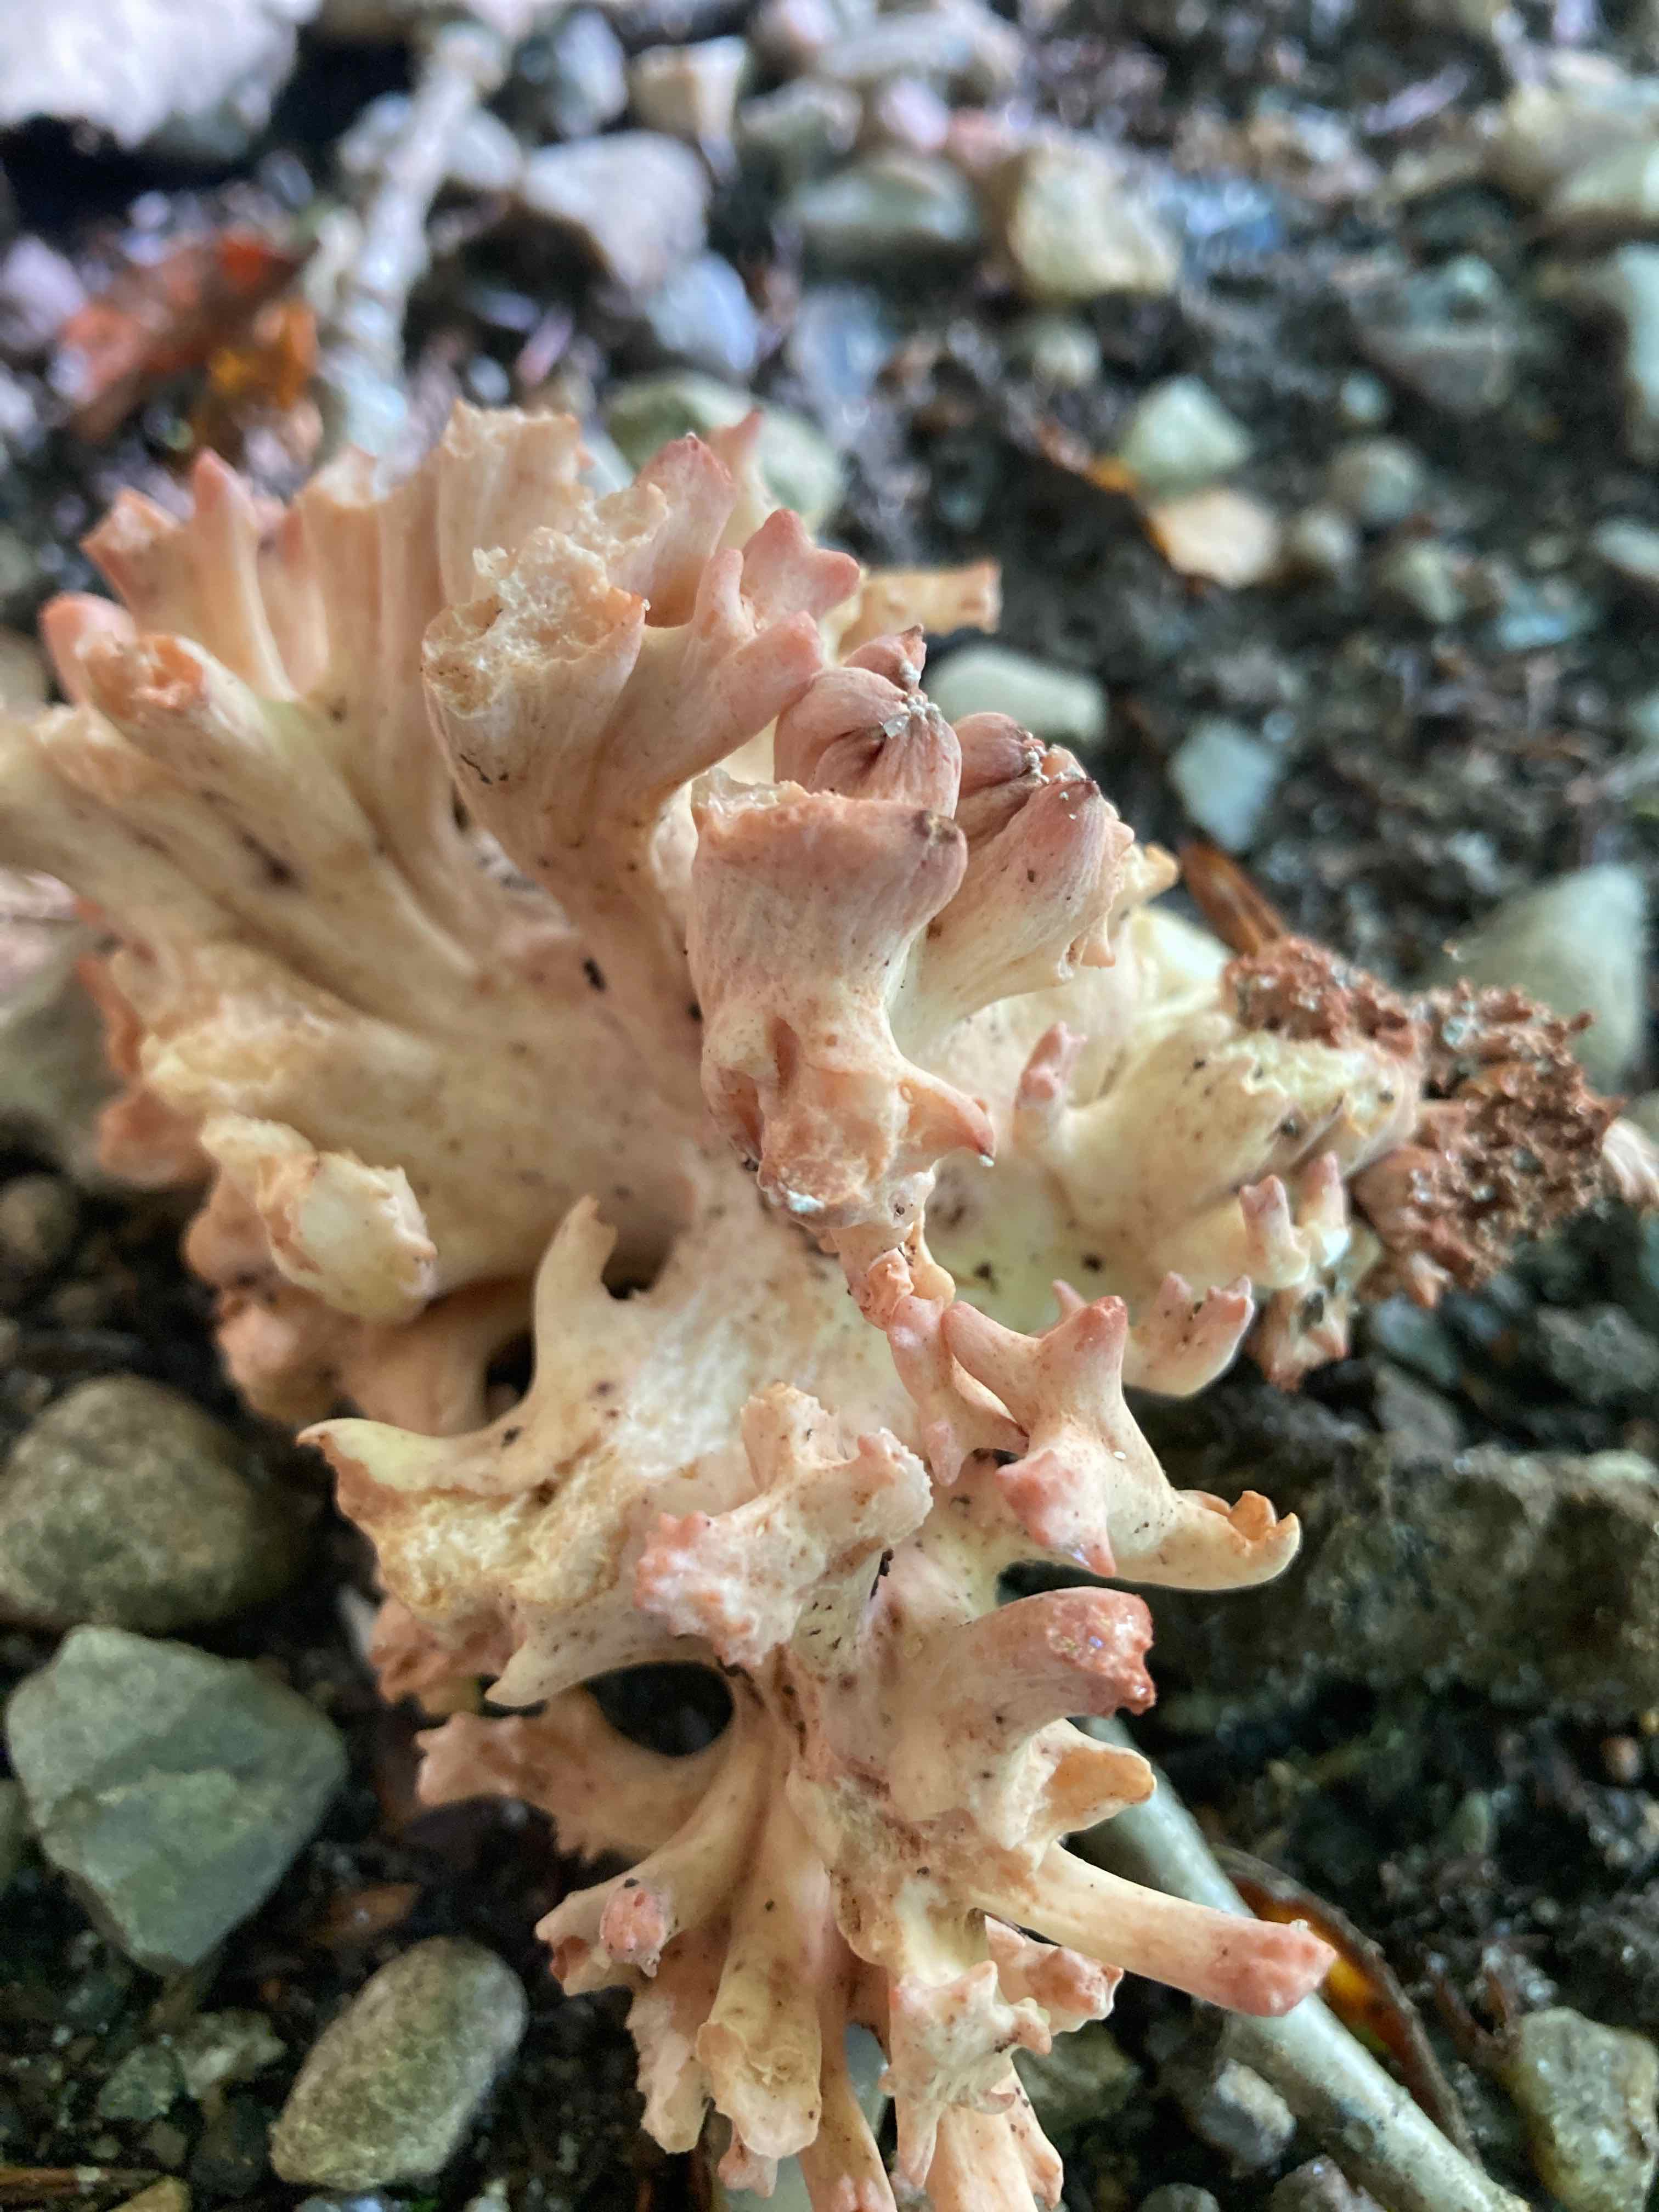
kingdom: Fungi
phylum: Basidiomycota
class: Agaricomycetes
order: Gomphales
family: Gomphaceae
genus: Ramaria
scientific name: Ramaria botrytis
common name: drue-koralsvamp
